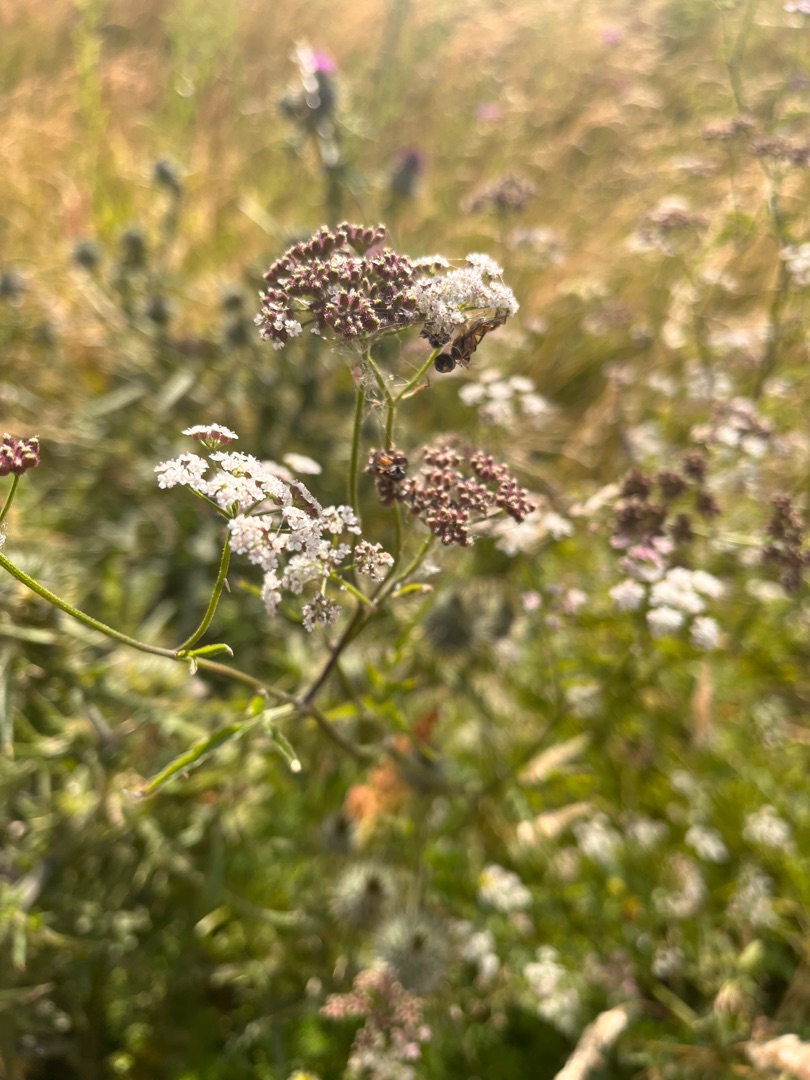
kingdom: Plantae
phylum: Tracheophyta
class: Magnoliopsida
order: Apiales
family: Apiaceae
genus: Torilis
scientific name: Torilis japonica
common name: Hvas randfrø
